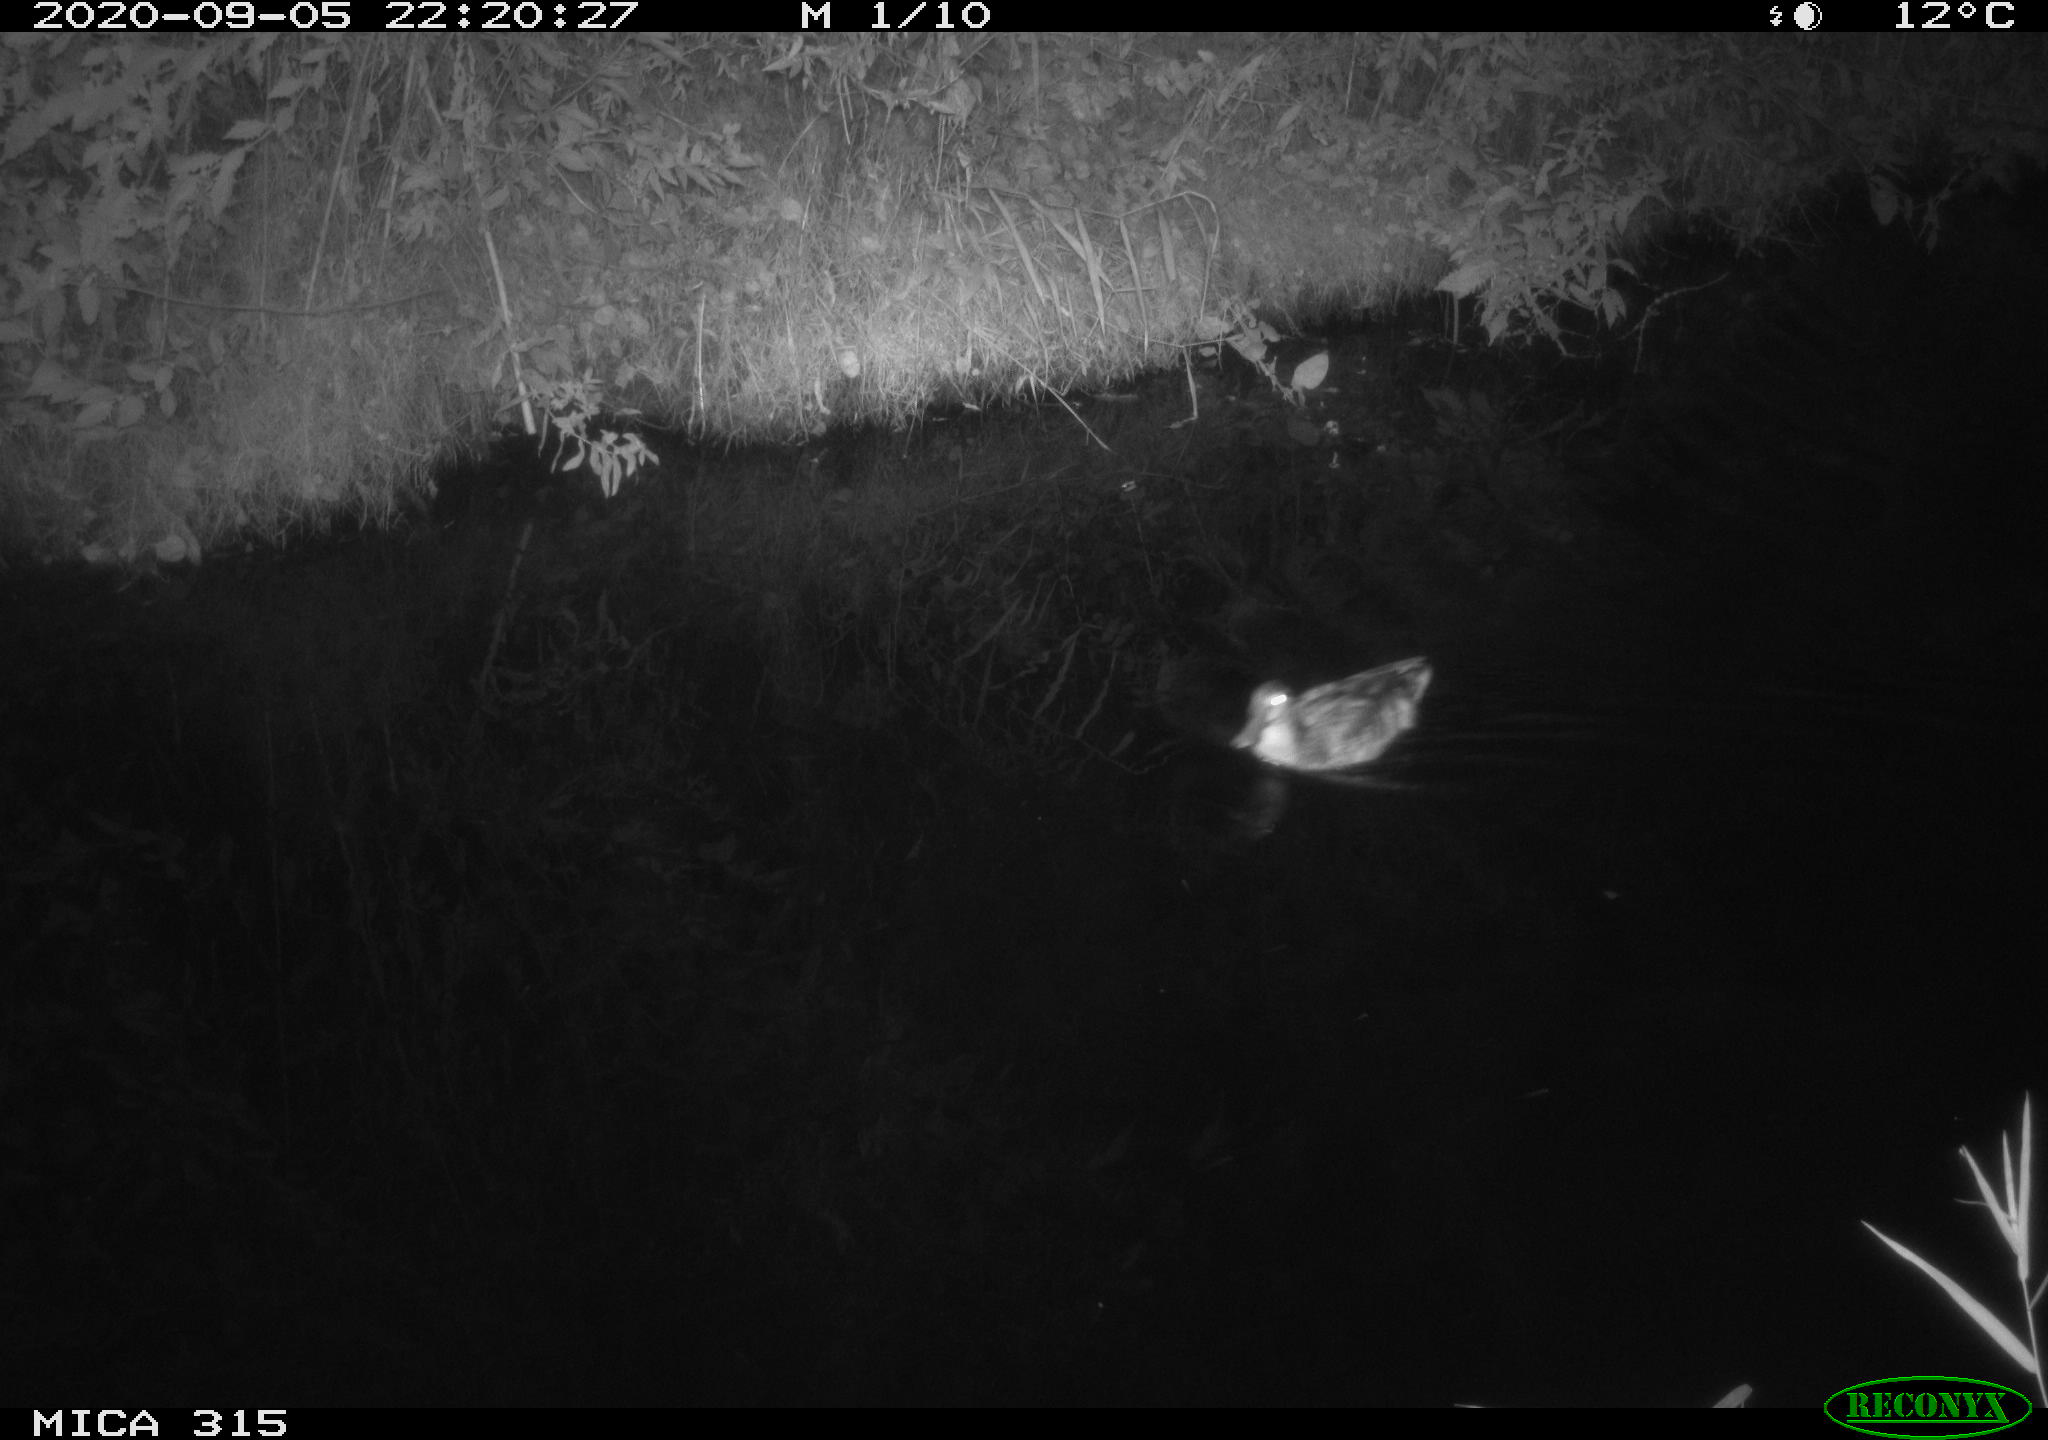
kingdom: Animalia
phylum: Chordata
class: Aves
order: Anseriformes
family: Anatidae
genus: Anas
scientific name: Anas platyrhynchos
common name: Mallard
